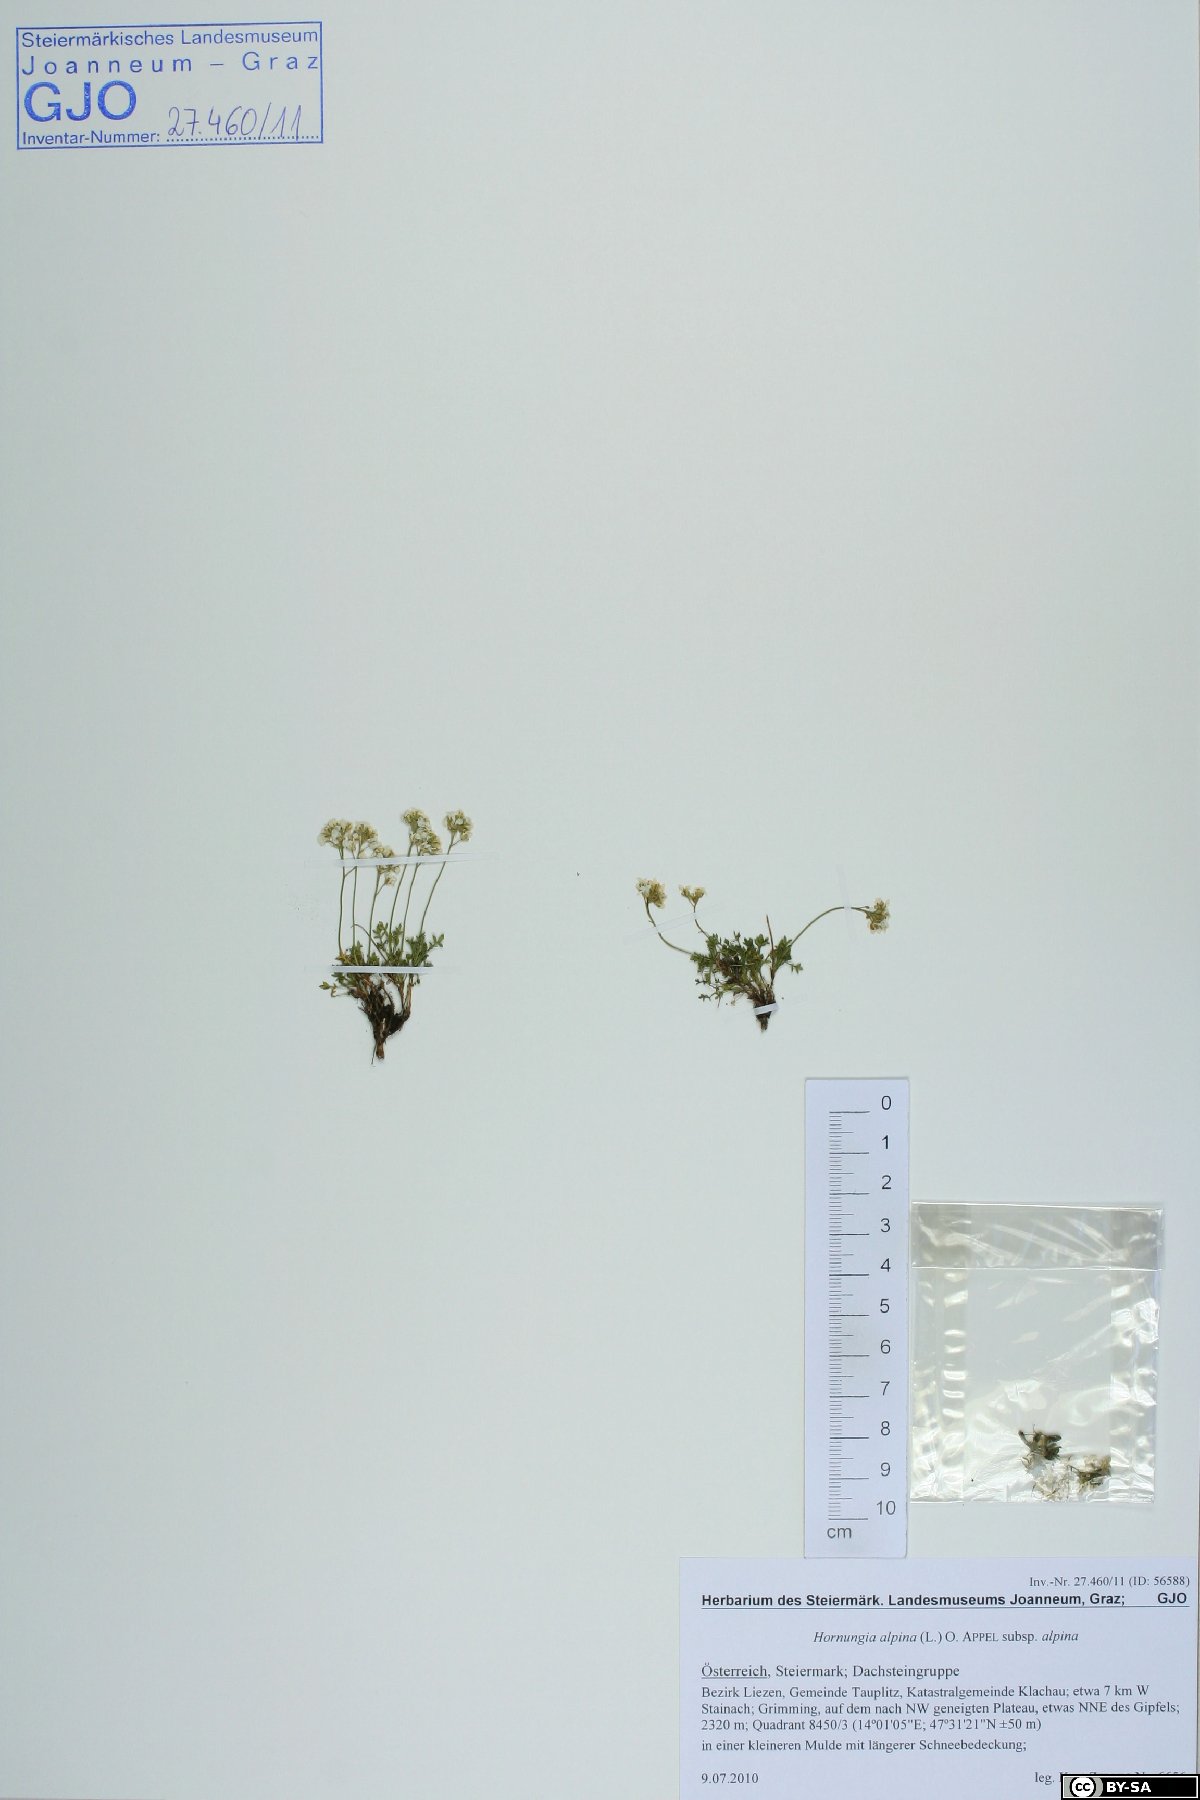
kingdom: Plantae
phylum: Tracheophyta
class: Magnoliopsida
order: Brassicales
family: Brassicaceae
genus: Hornungia
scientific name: Hornungia alpina
